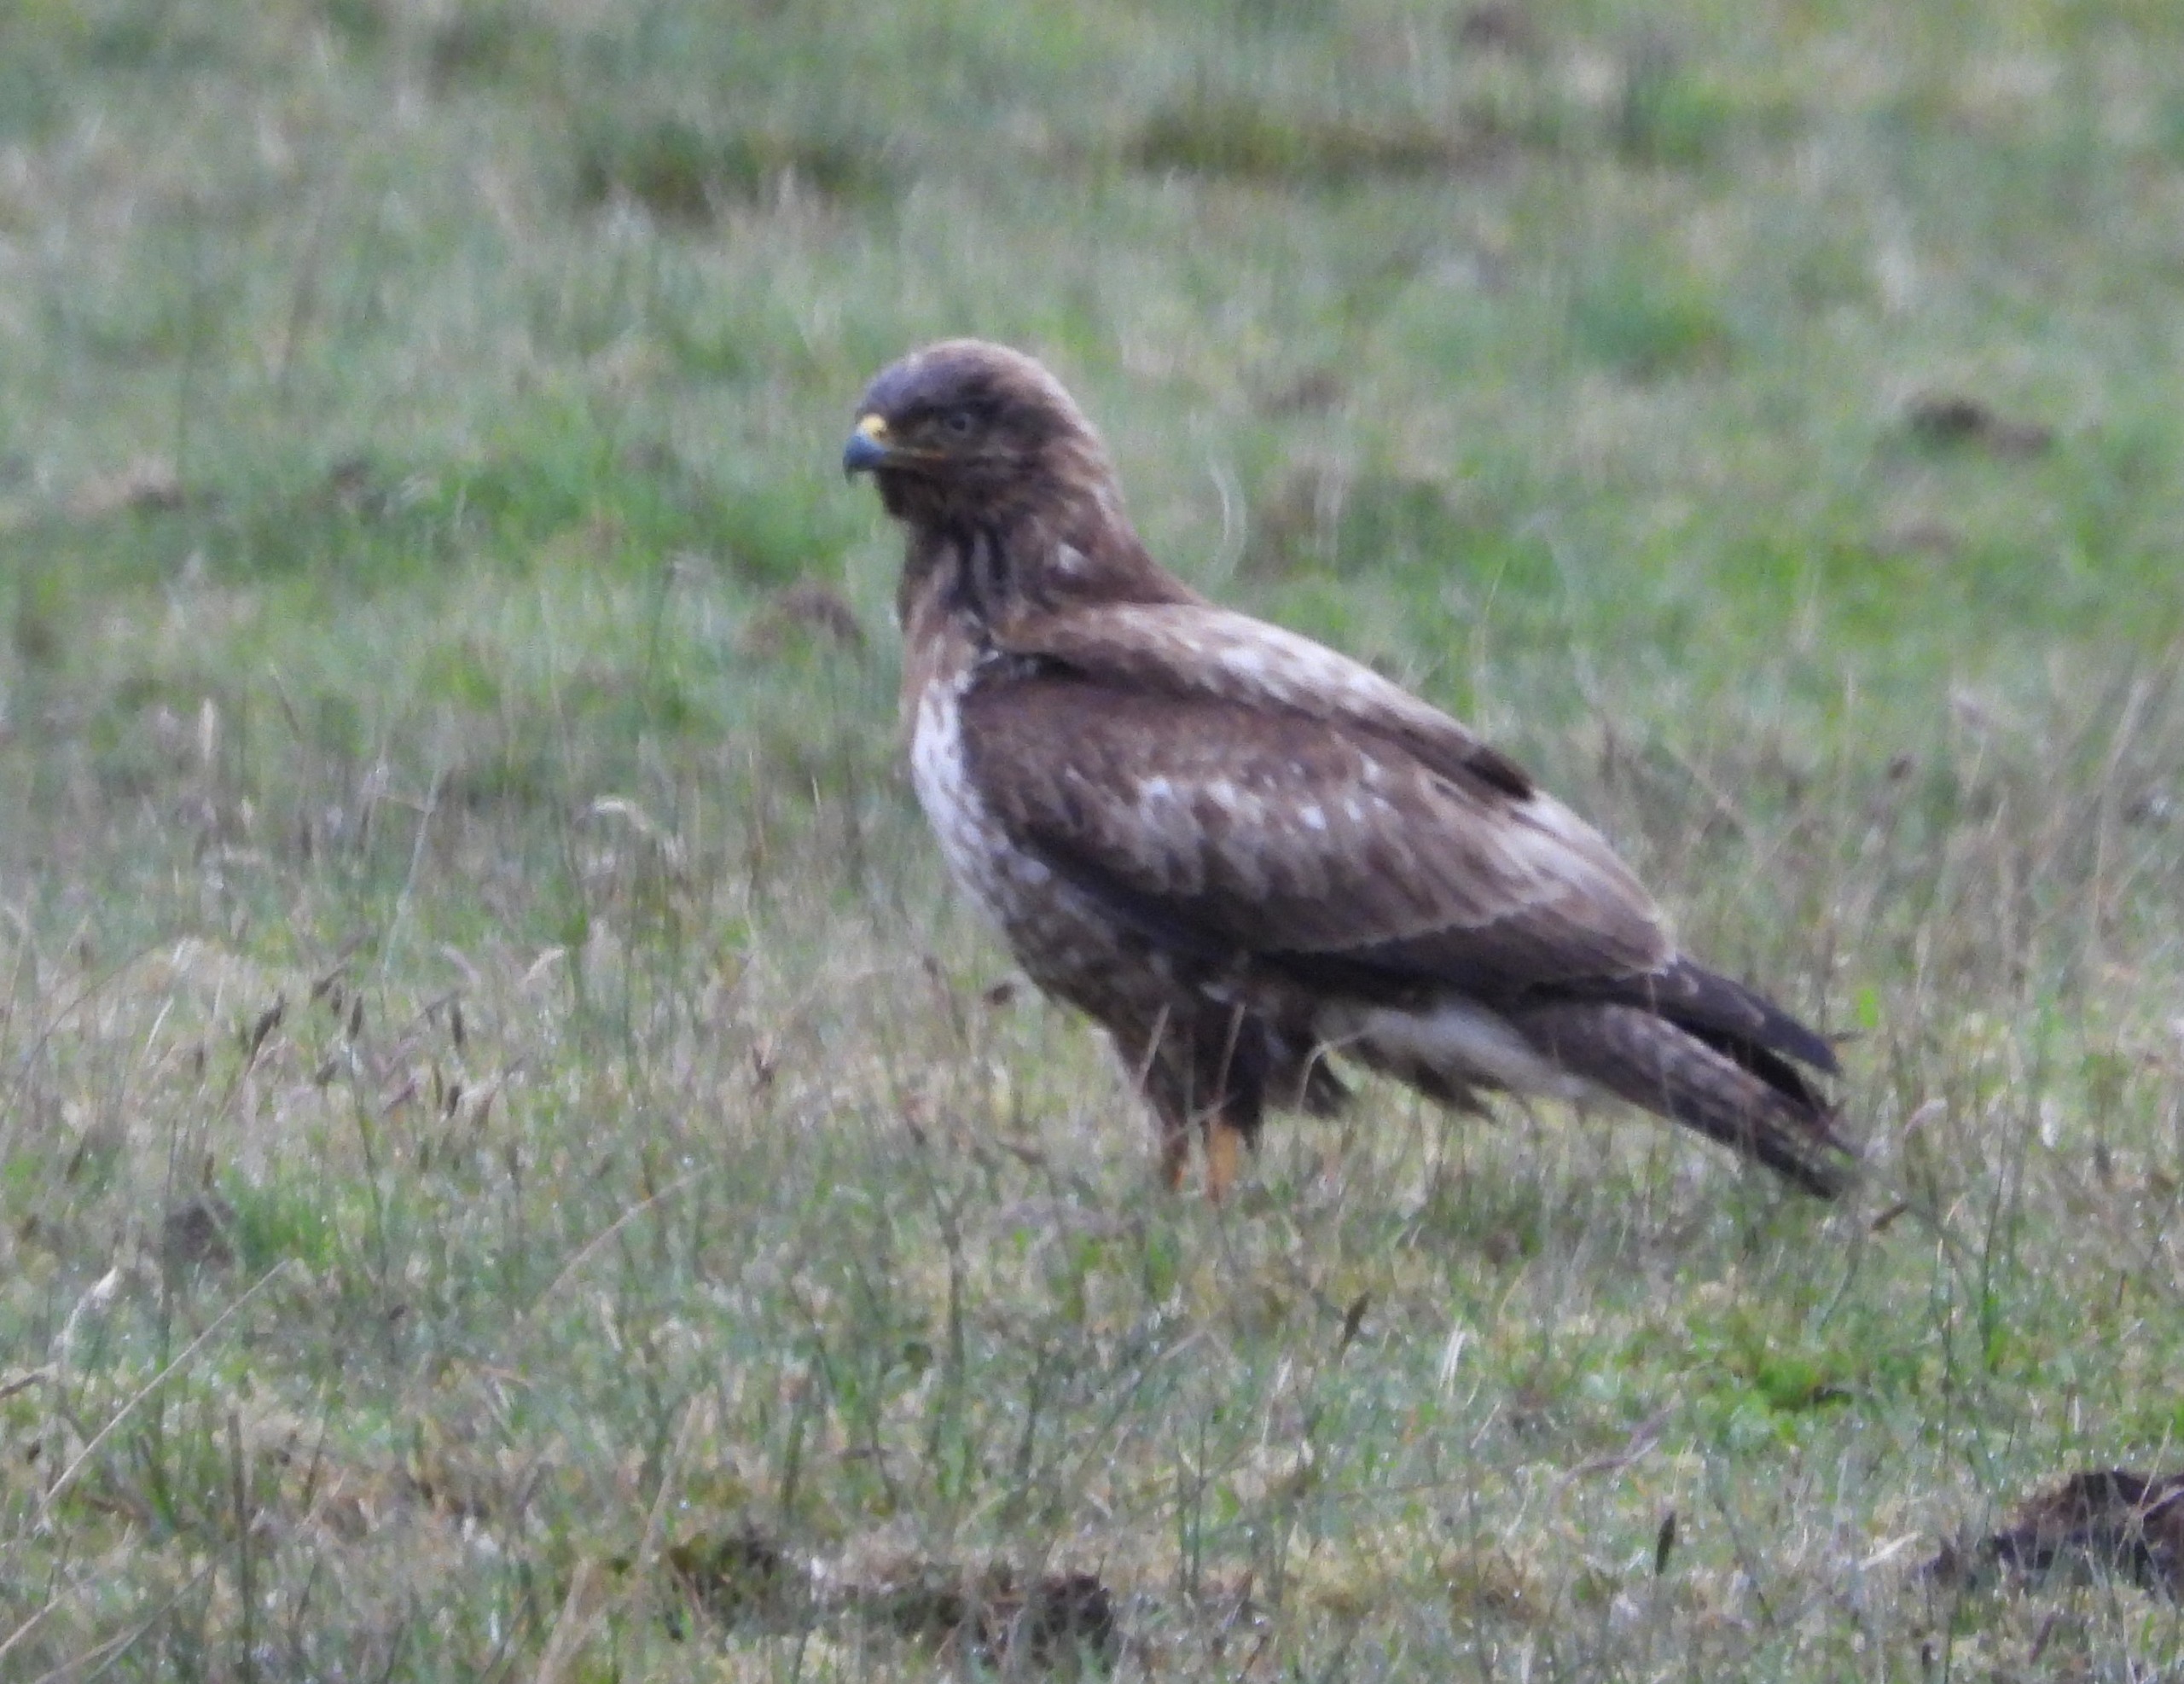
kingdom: Animalia
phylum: Chordata
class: Aves
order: Accipitriformes
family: Accipitridae
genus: Buteo
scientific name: Buteo buteo
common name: Musvåge
